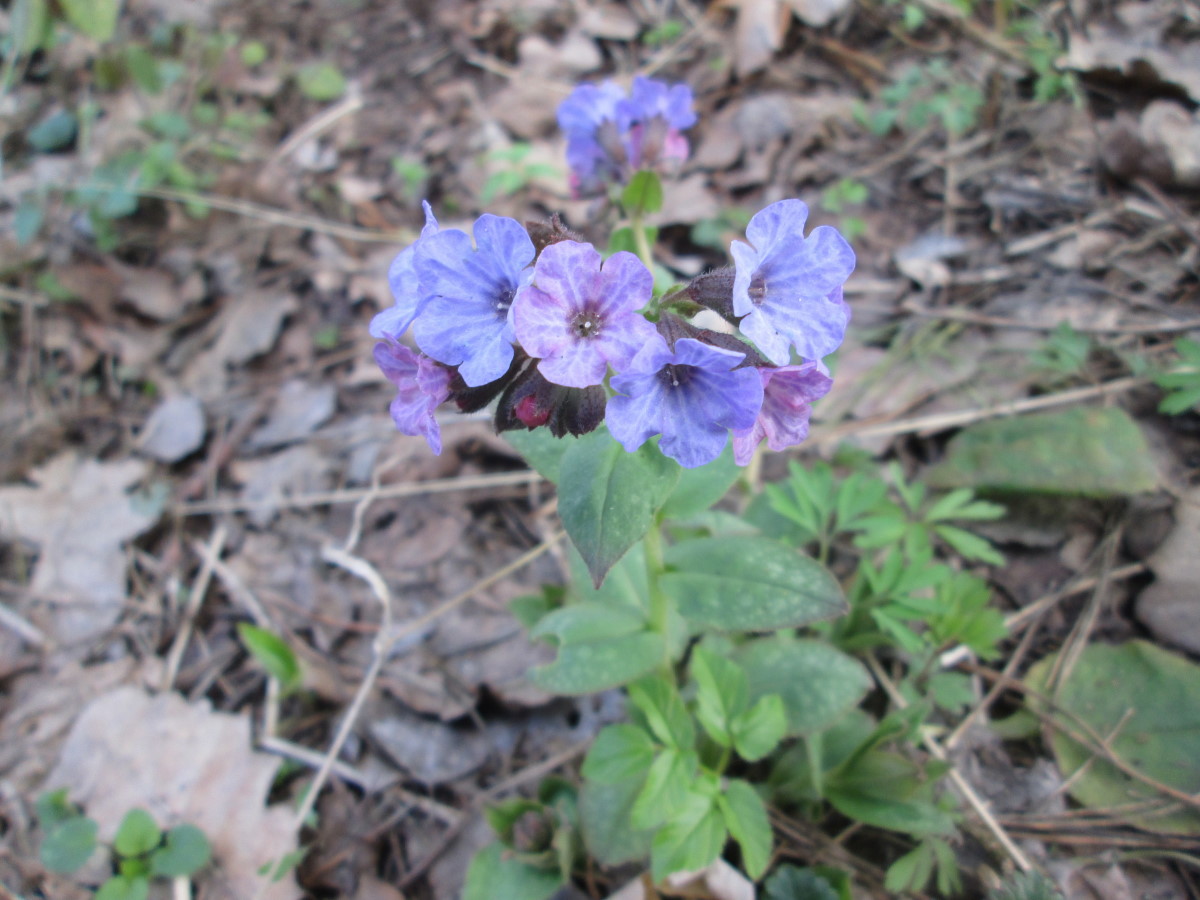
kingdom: Plantae
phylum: Tracheophyta
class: Magnoliopsida
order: Boraginales
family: Boraginaceae
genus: Pulmonaria
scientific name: Pulmonaria obscura
